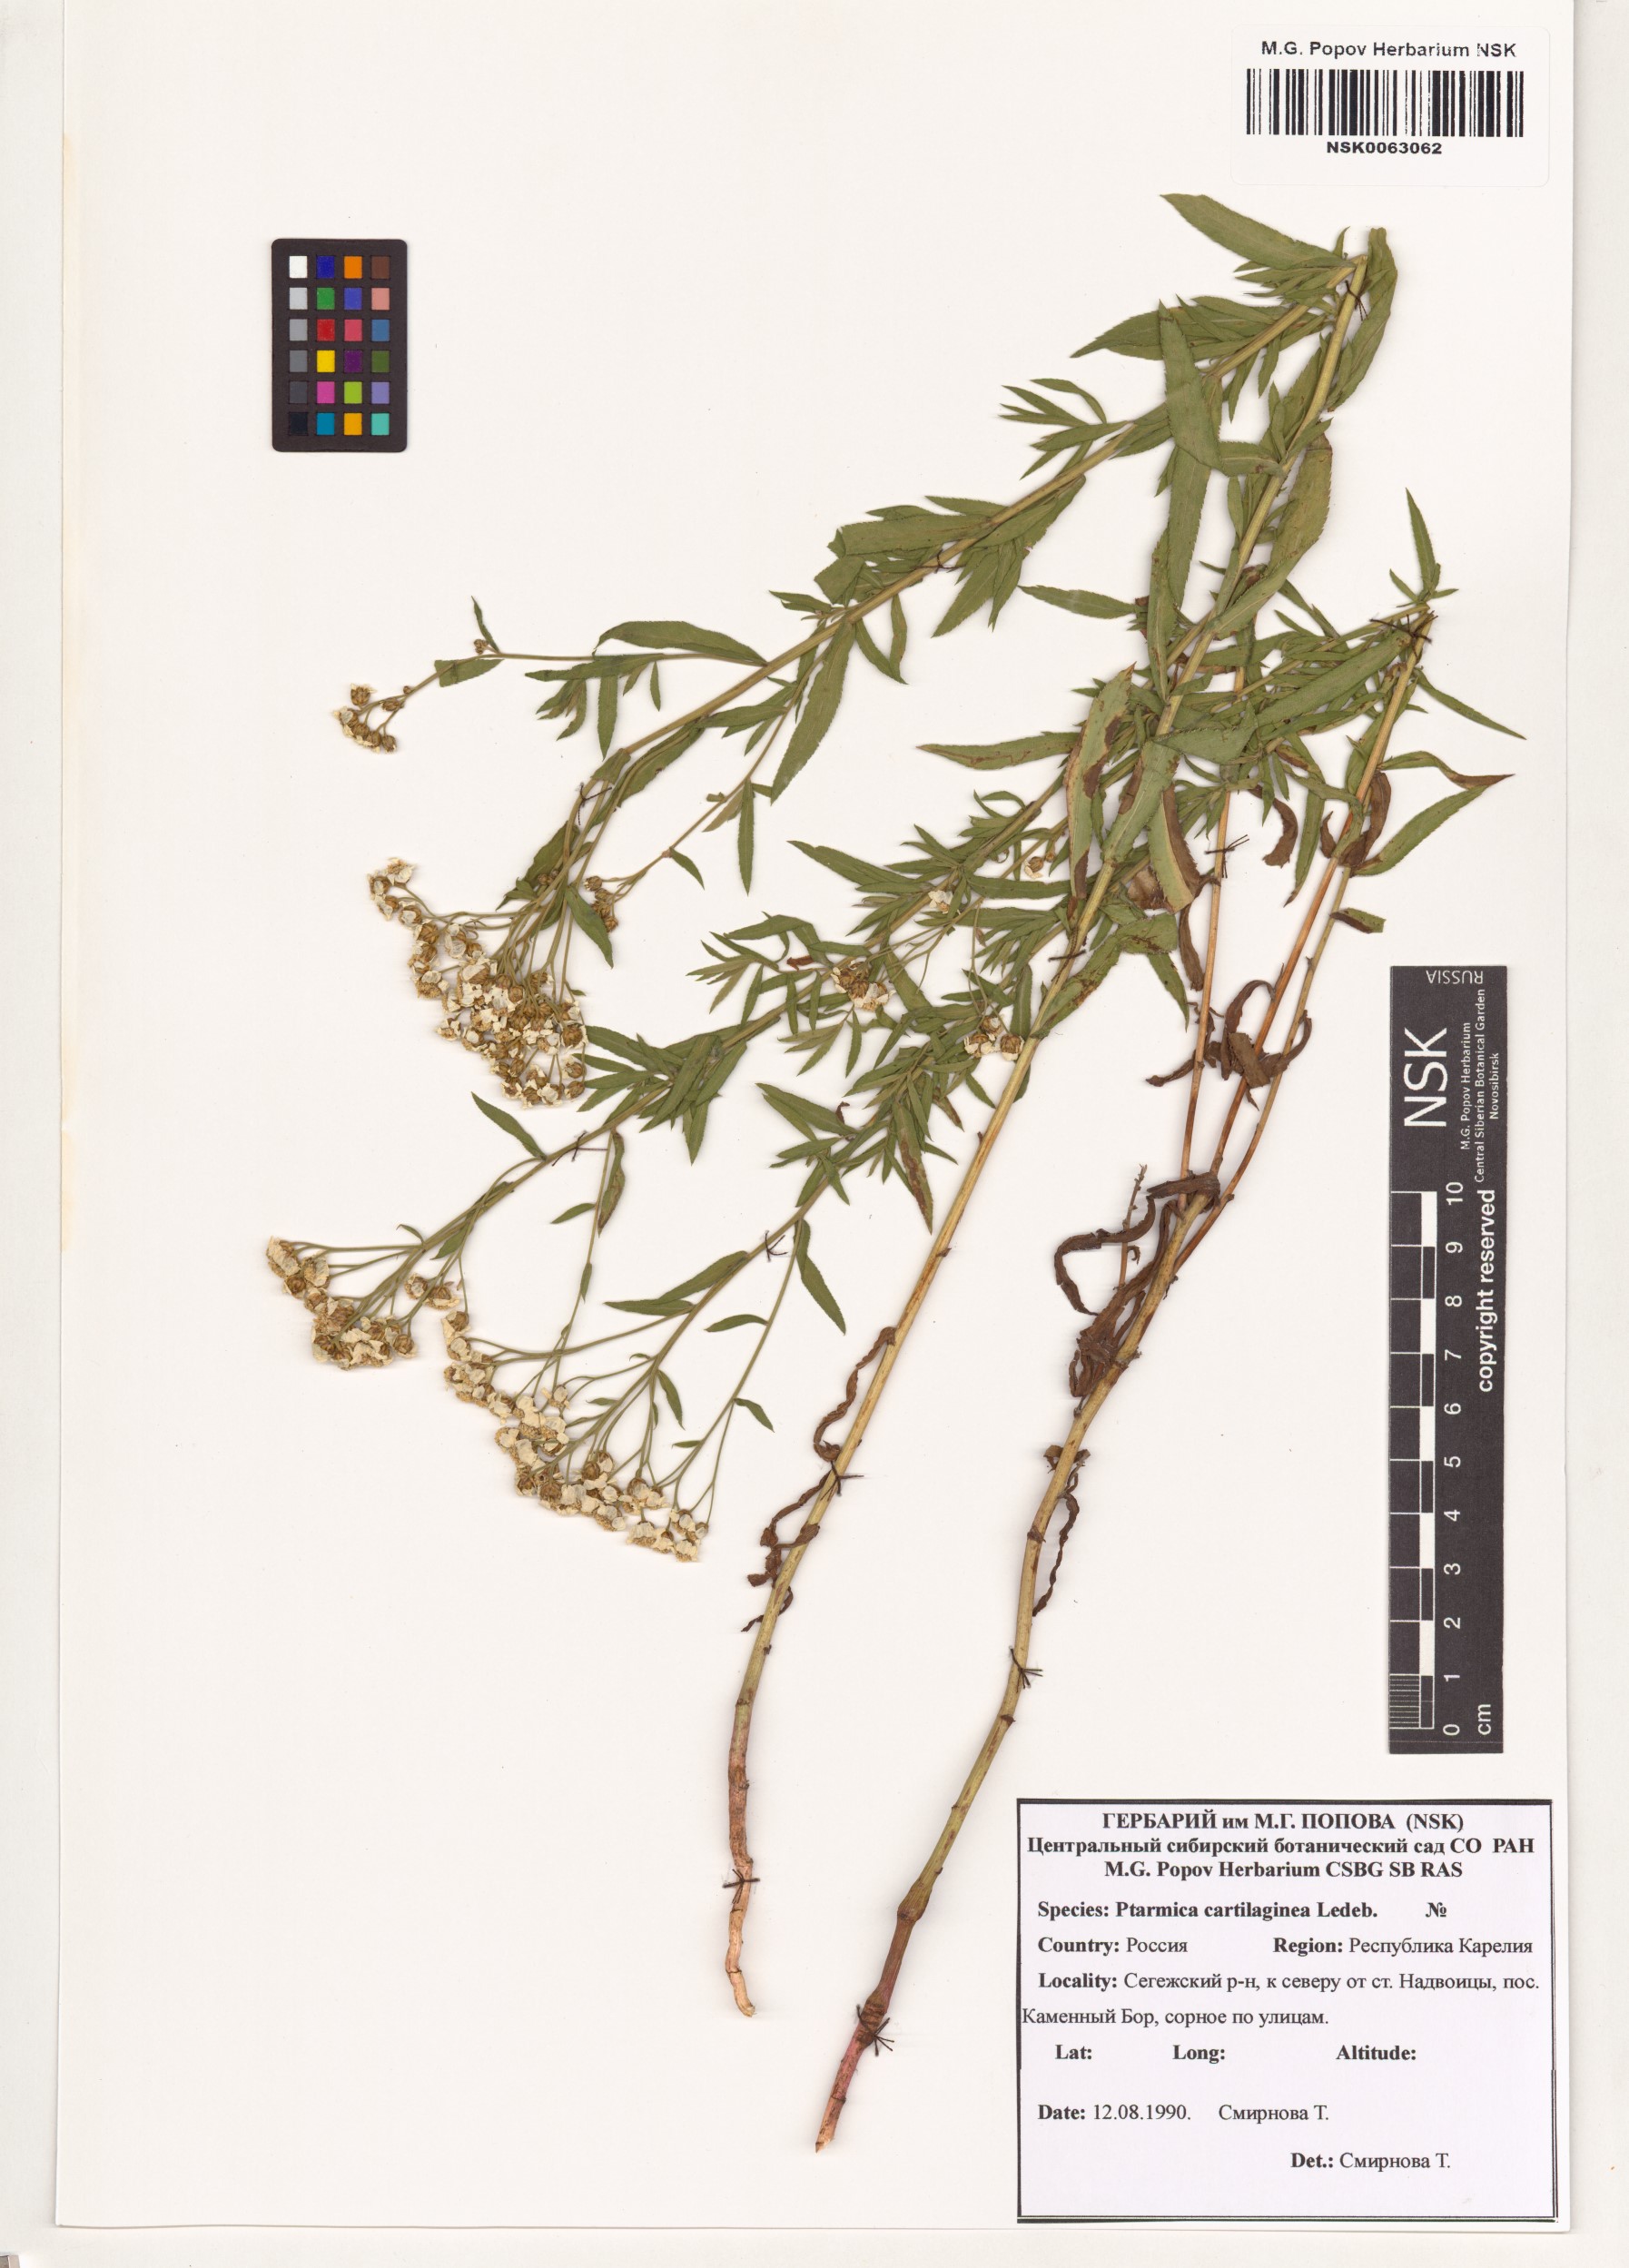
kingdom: Plantae
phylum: Tracheophyta
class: Magnoliopsida
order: Asterales
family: Asteraceae
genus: Achillea
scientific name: Achillea
